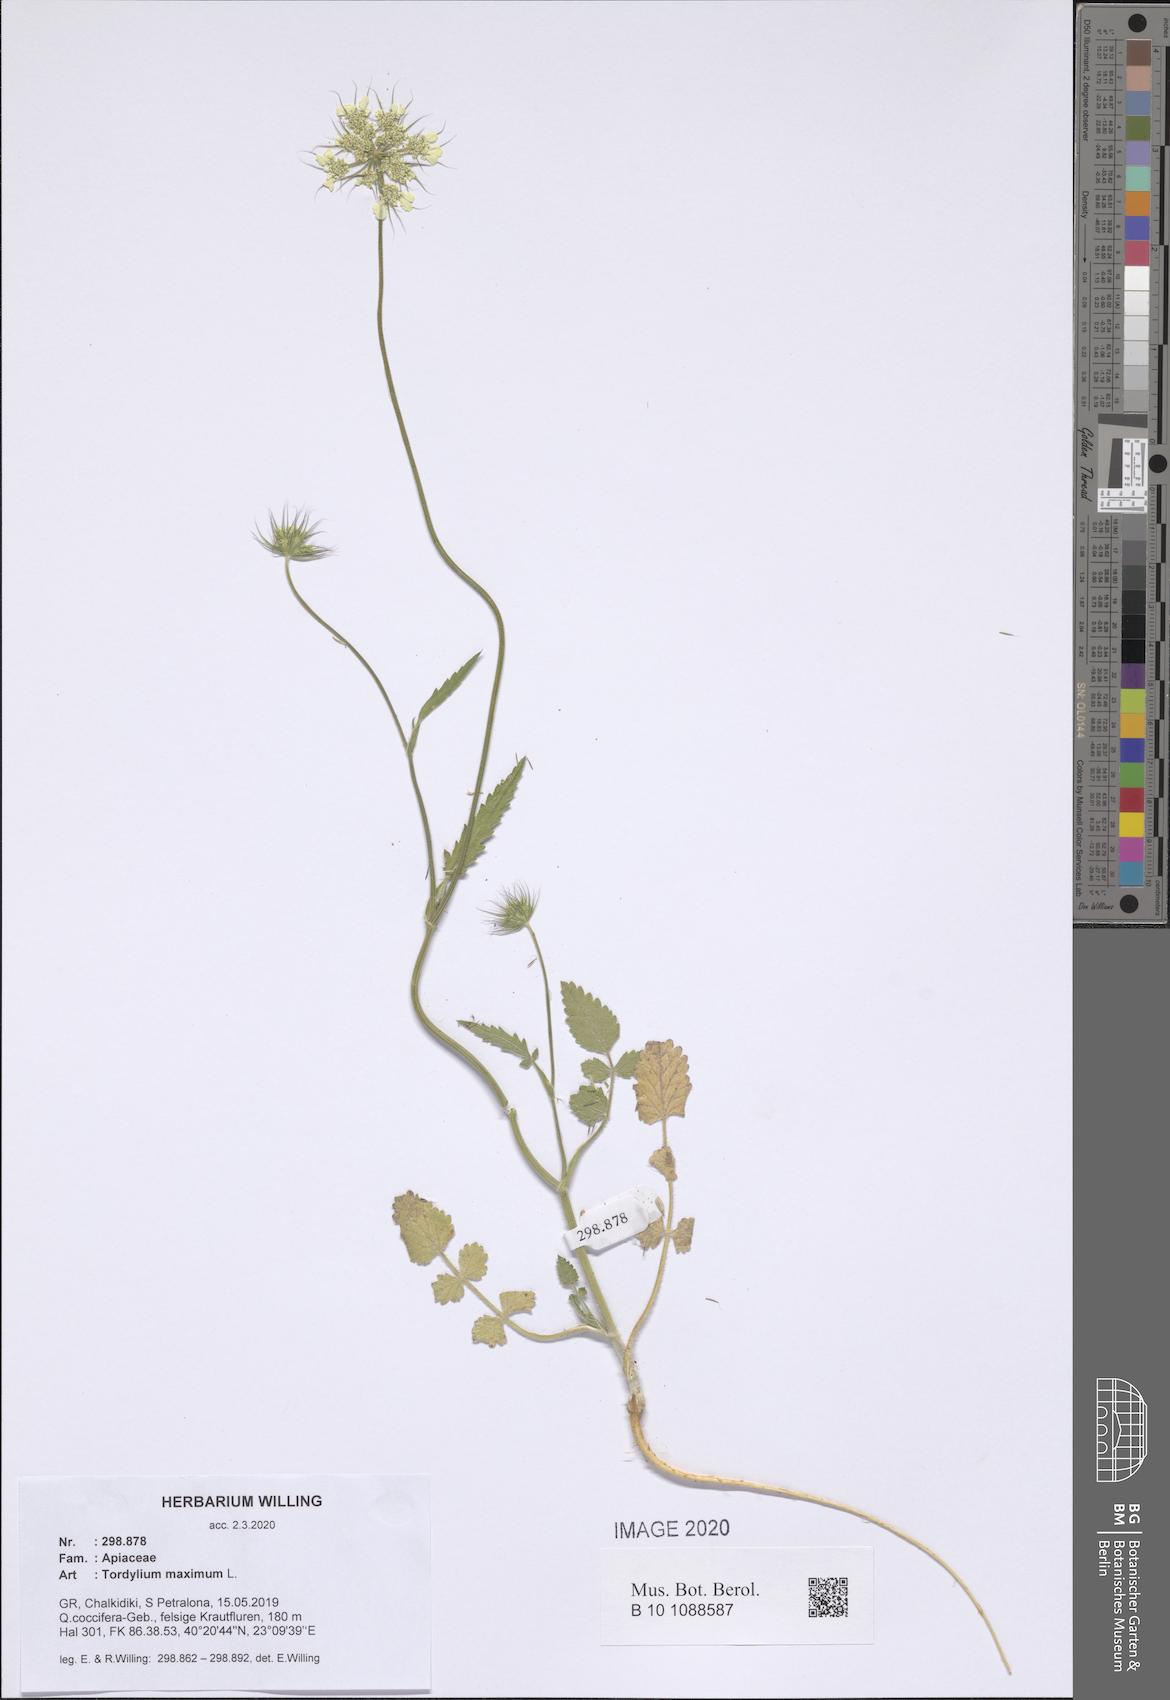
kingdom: Plantae
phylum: Tracheophyta
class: Magnoliopsida
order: Apiales
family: Apiaceae
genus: Tordylium
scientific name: Tordylium maximum
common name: Hartwort
